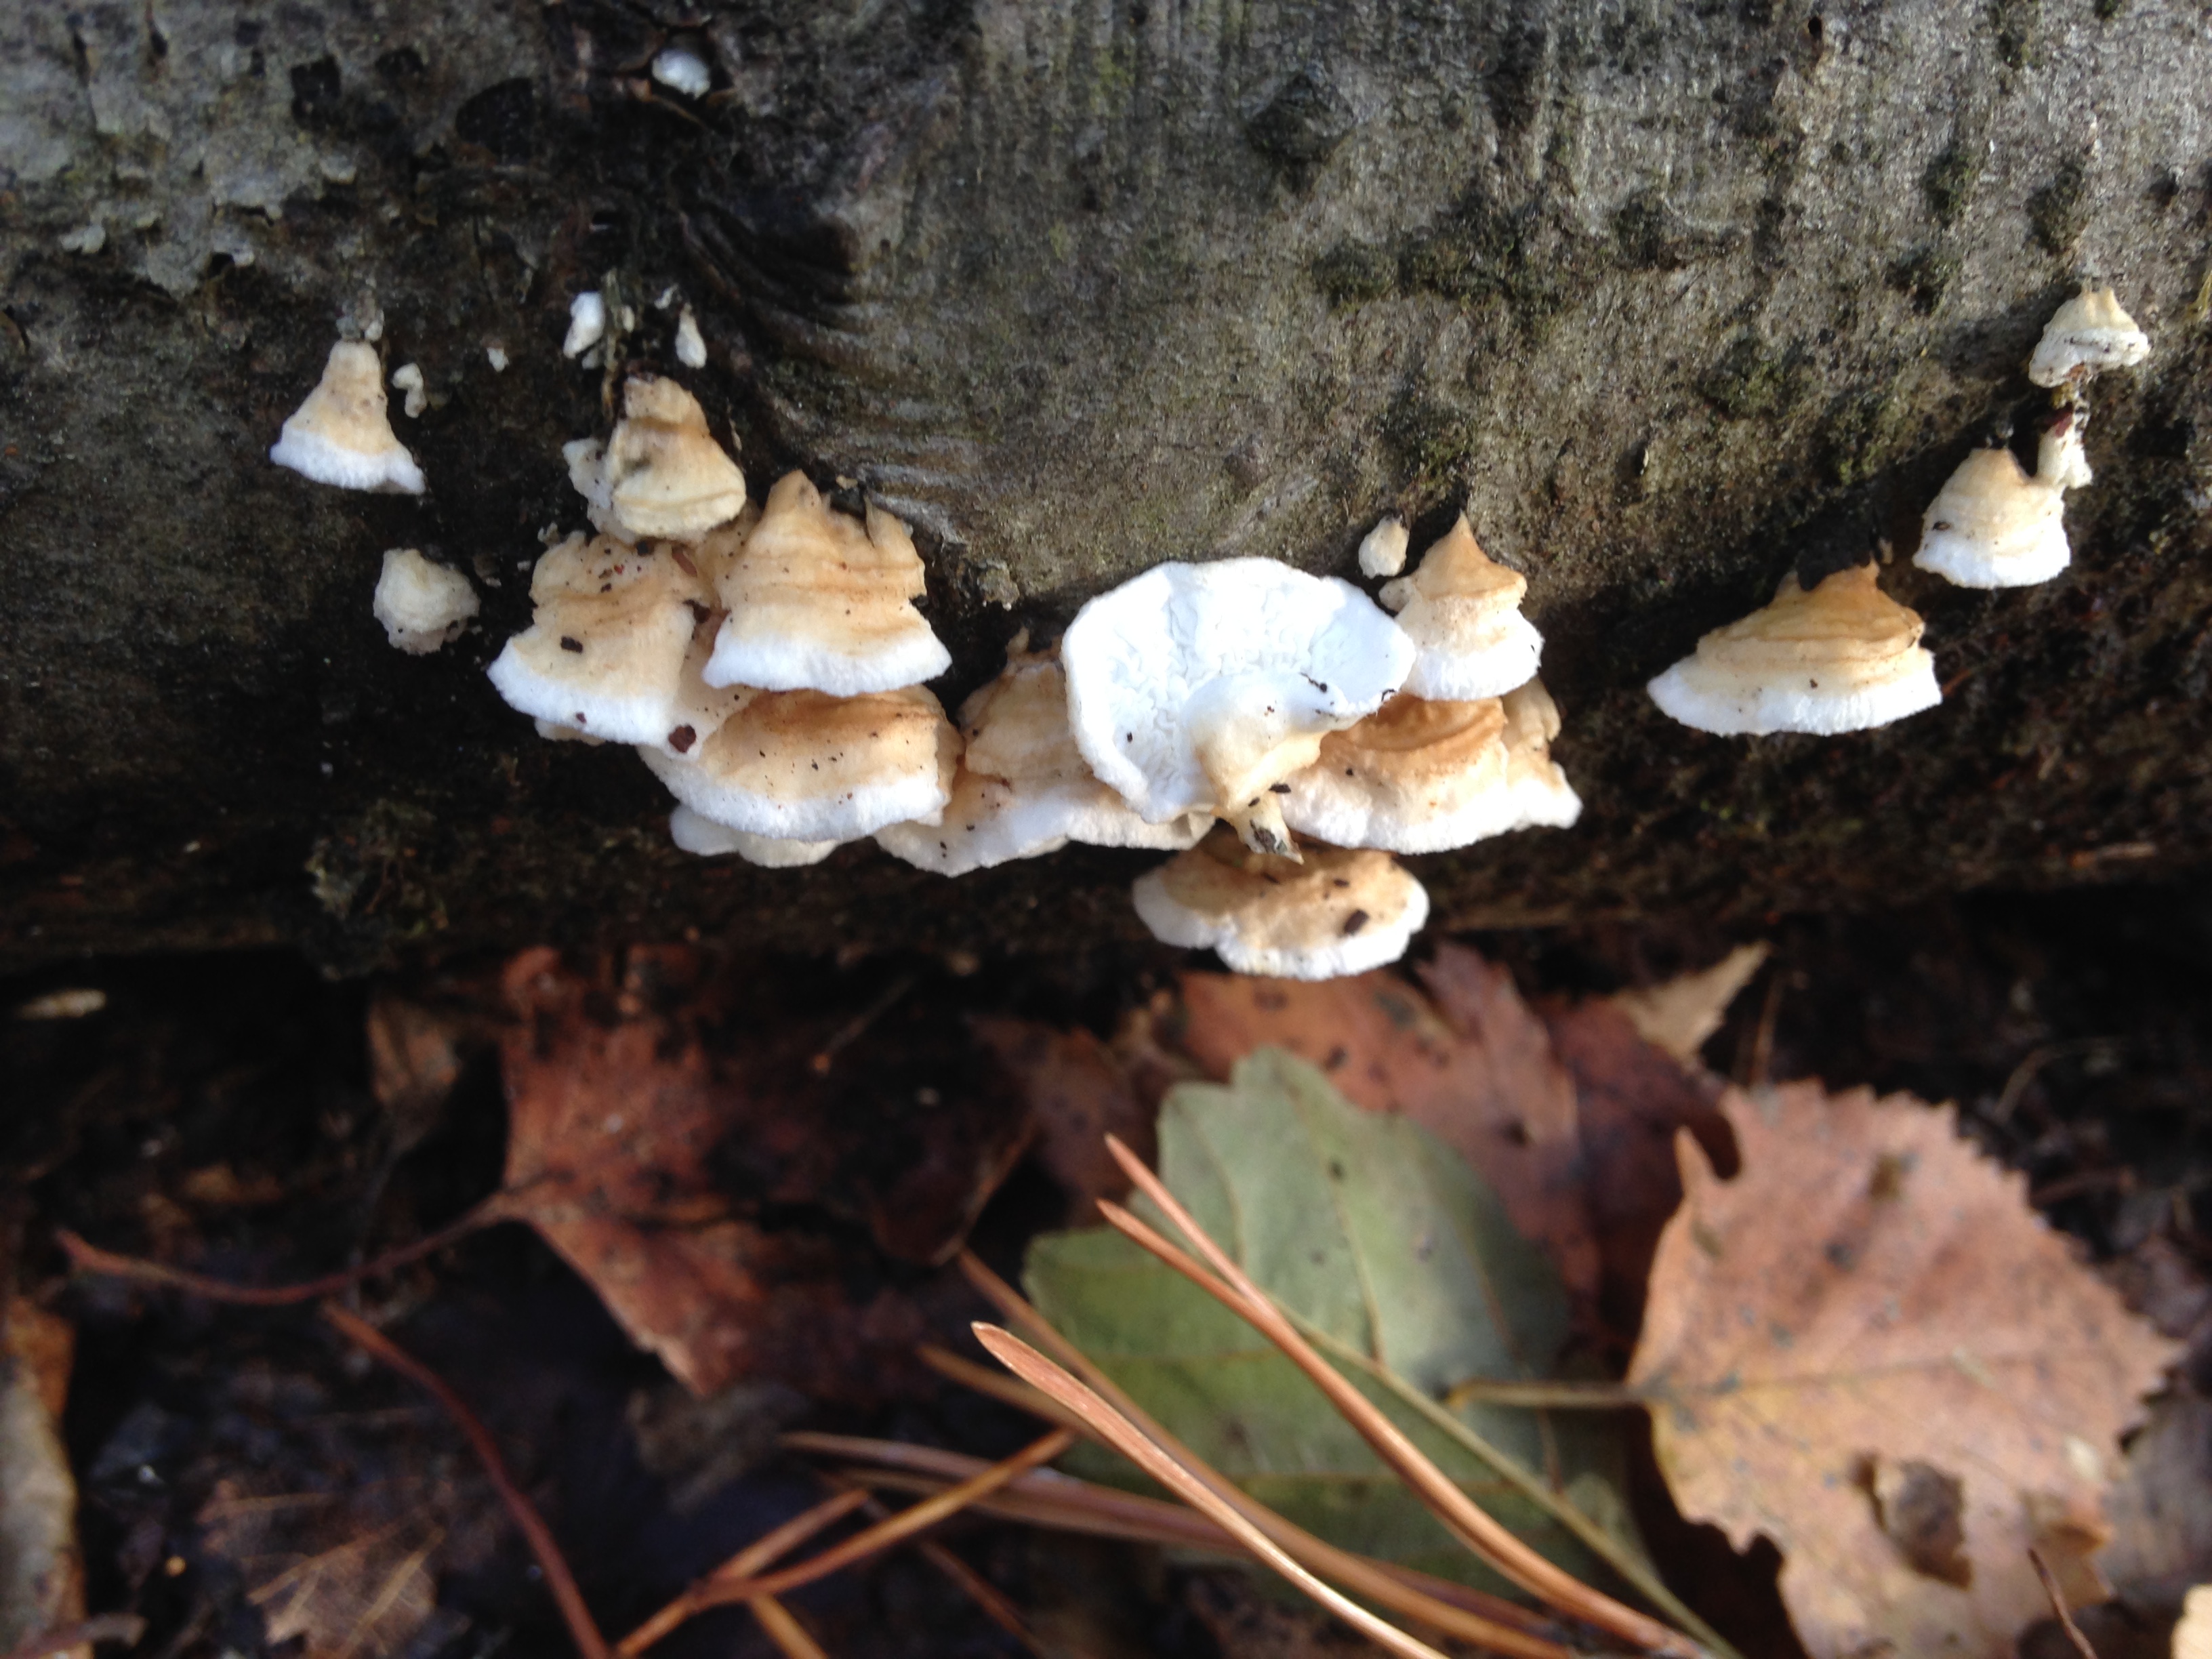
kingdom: Fungi
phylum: Basidiomycota
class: Agaricomycetes
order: Agaricales
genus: Plicatura
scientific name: Plicatura nivea
